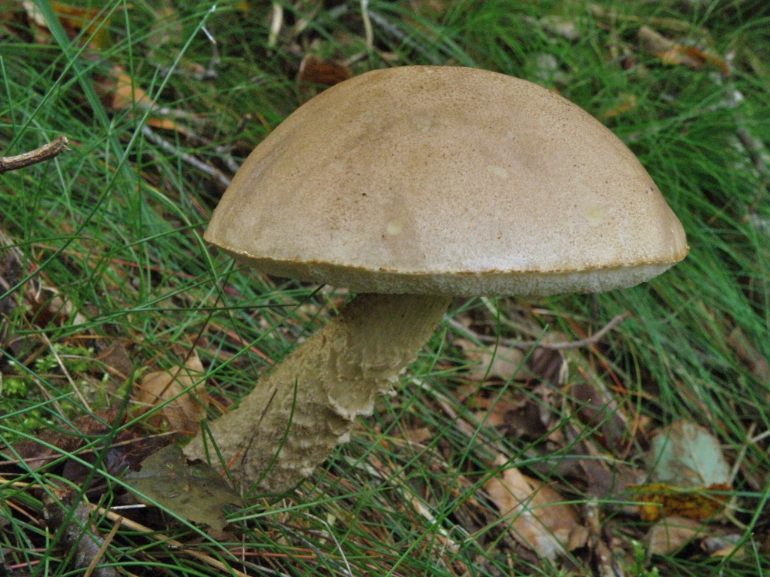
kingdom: Fungi
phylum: Basidiomycota
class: Agaricomycetes
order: Boletales
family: Boletaceae
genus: Leccinum
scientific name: Leccinum scabrum
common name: hvid skælrørhat
